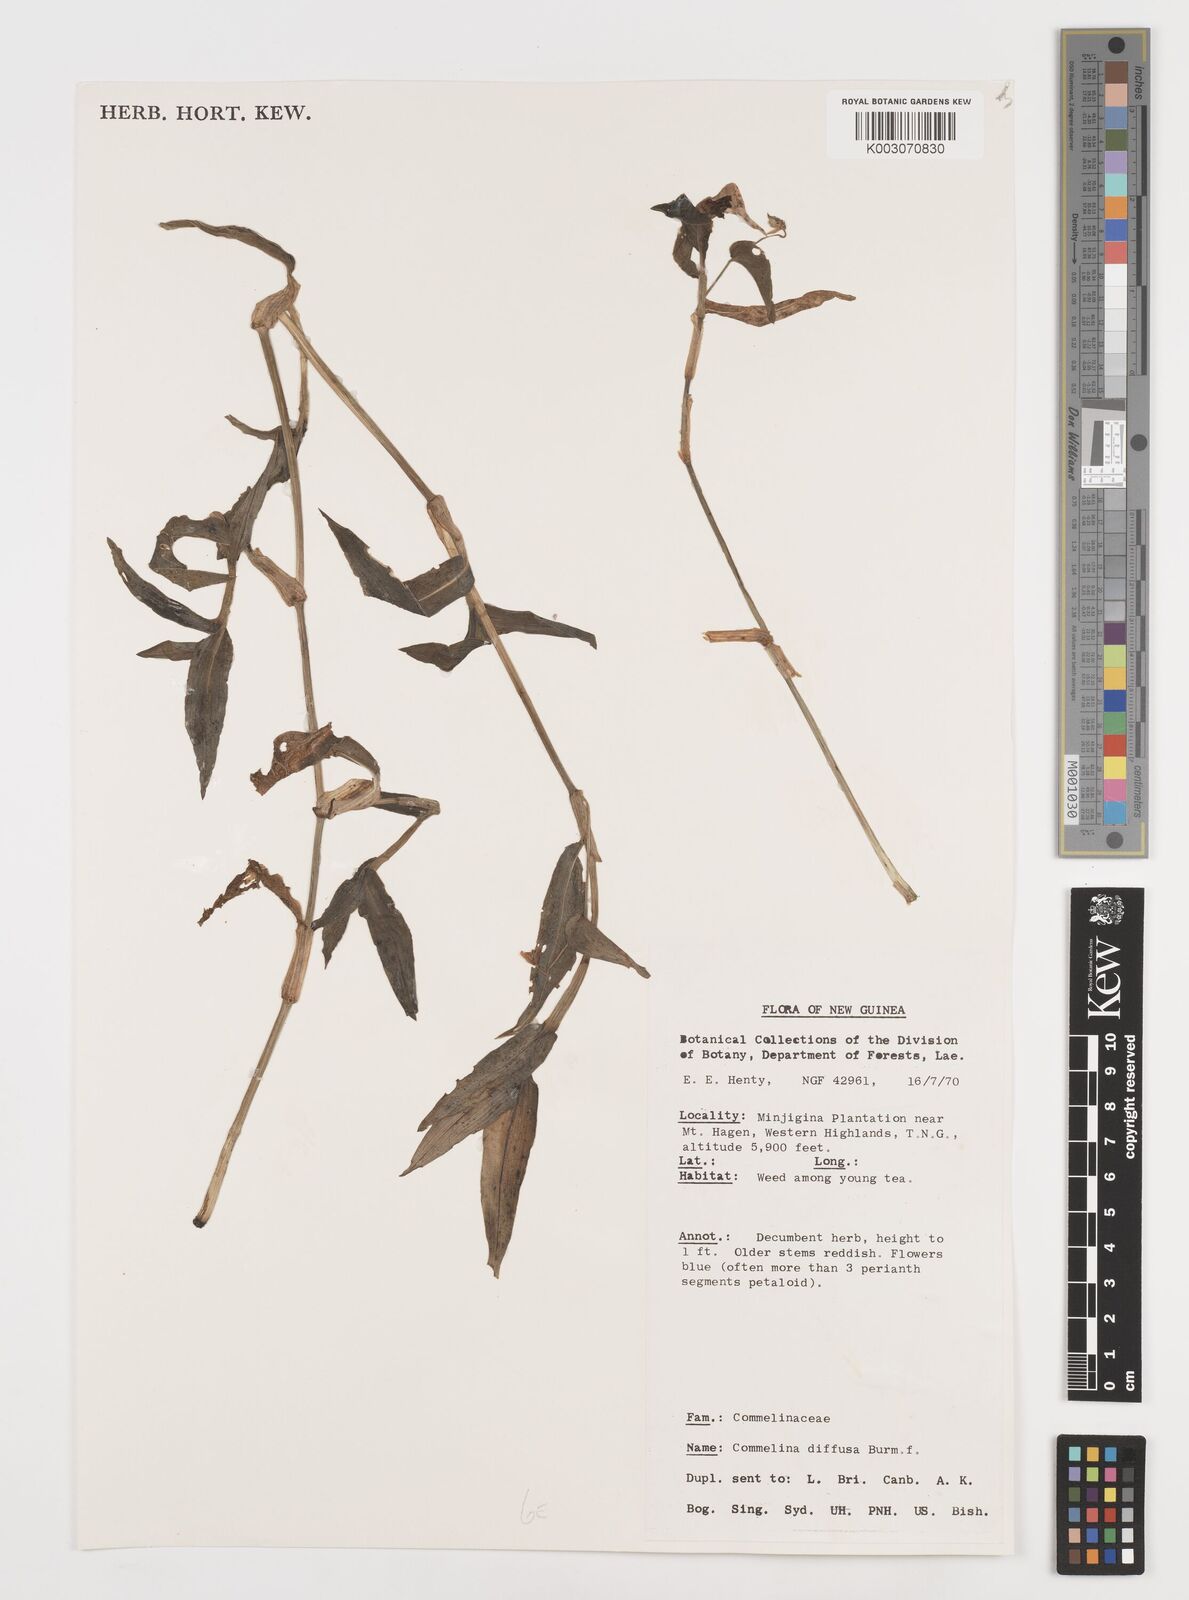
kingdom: Plantae
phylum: Tracheophyta
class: Liliopsida
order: Commelinales
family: Commelinaceae
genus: Commelina
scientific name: Commelina diffusa
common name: Climbing dayflower
